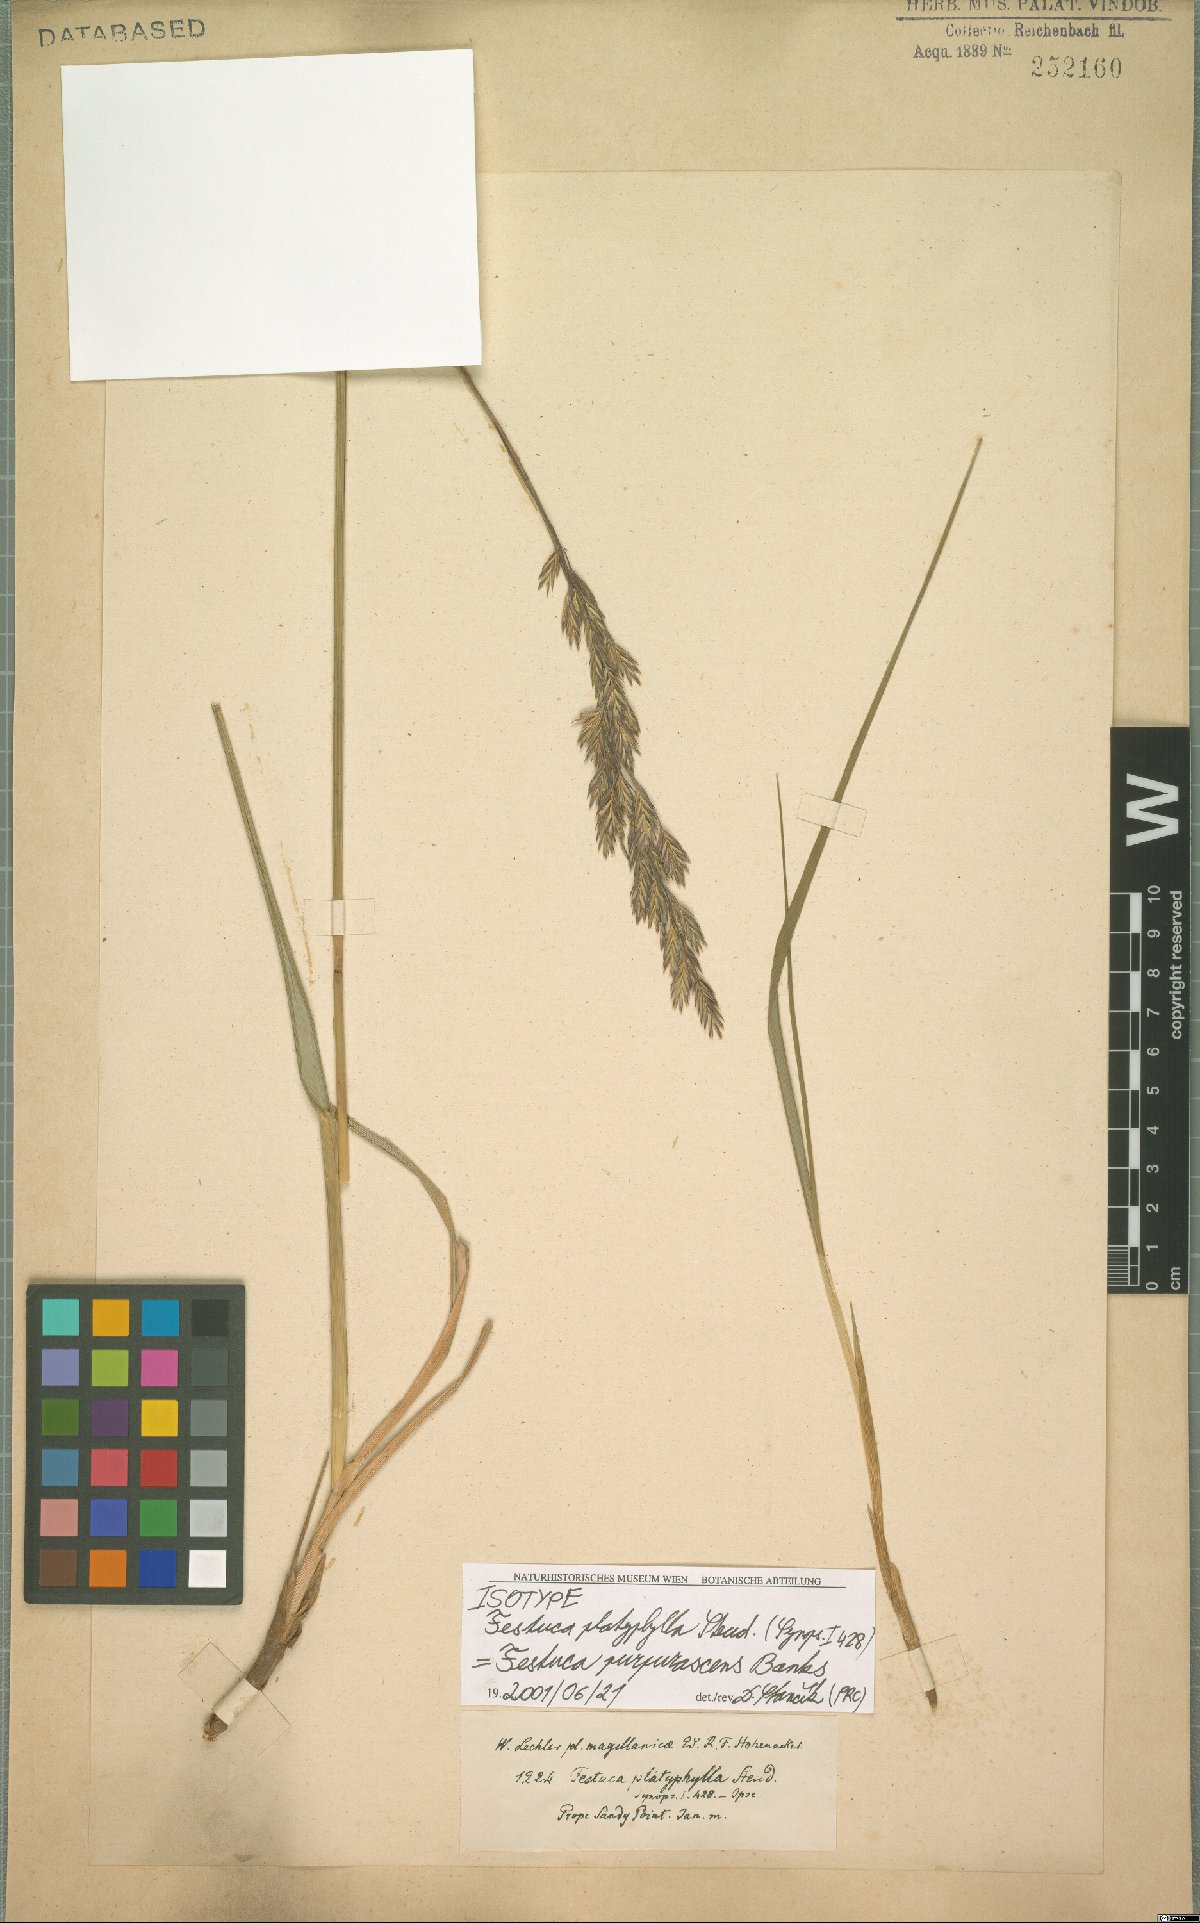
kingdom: Plantae
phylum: Tracheophyta
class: Liliopsida
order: Poales
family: Poaceae
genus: Festuca
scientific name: Festuca purpurascens
